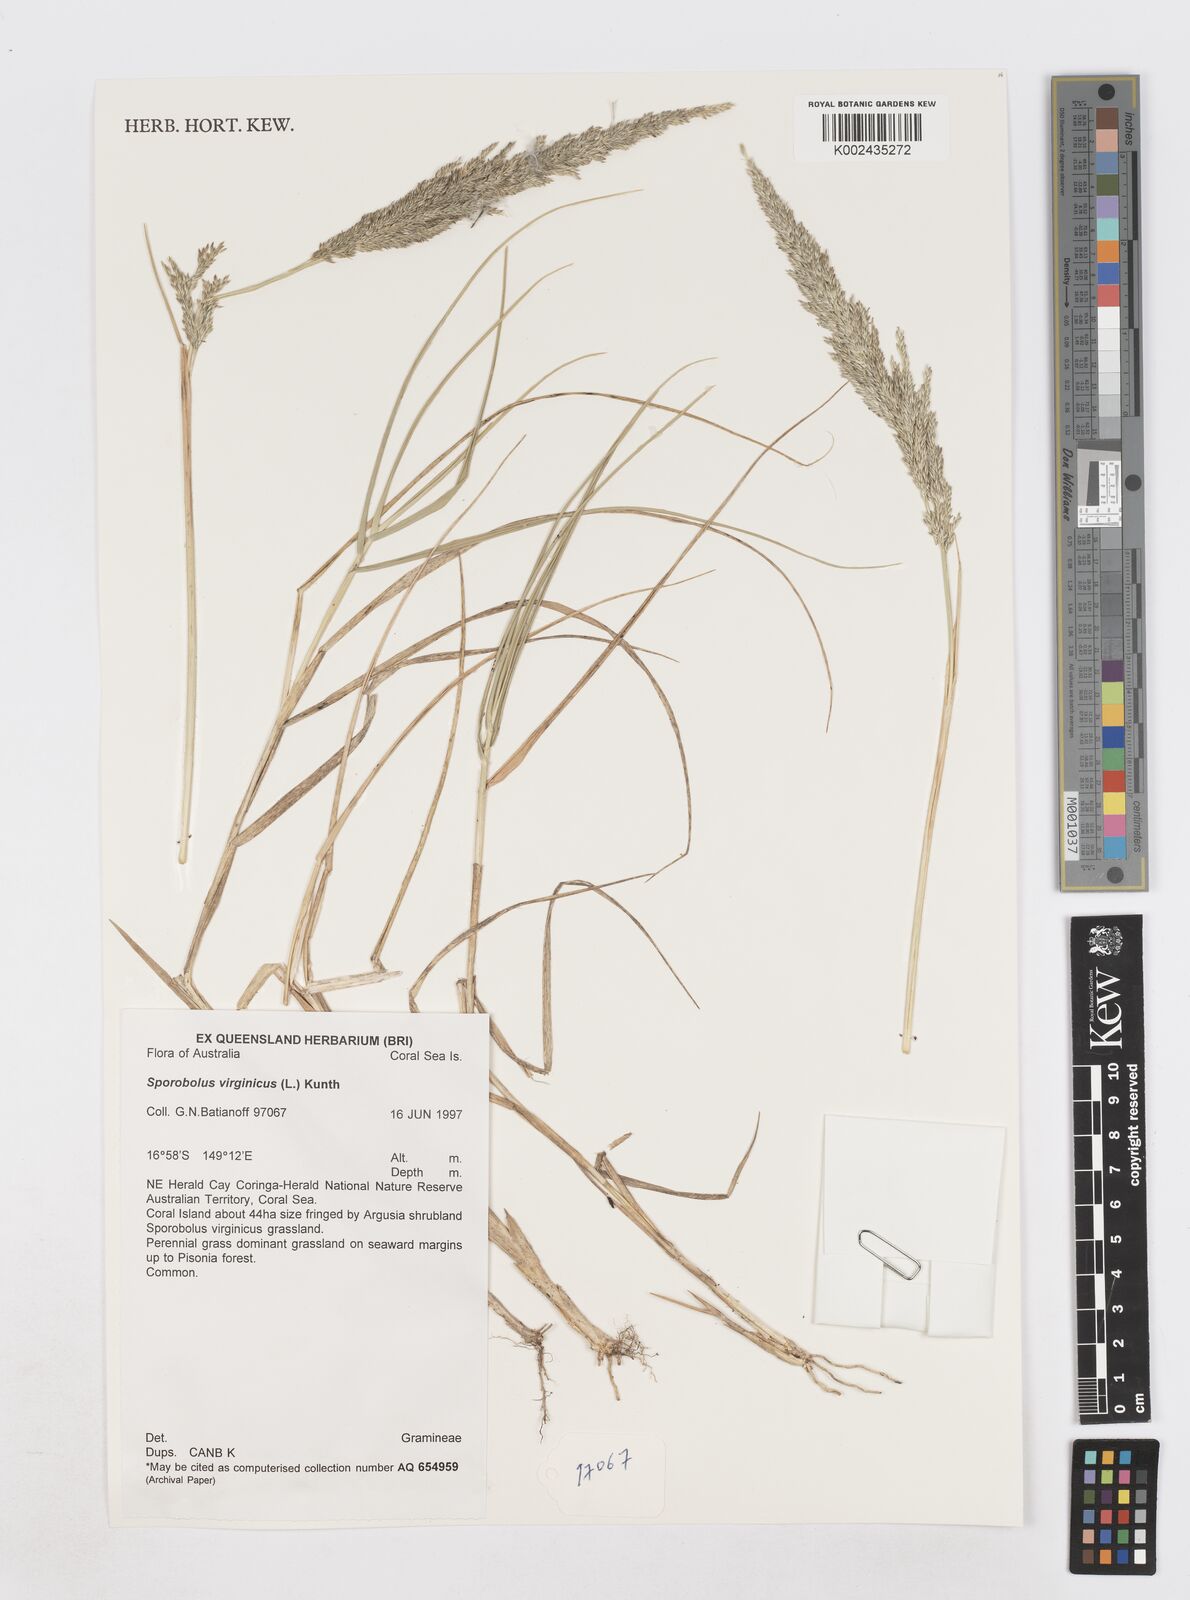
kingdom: Plantae
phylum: Tracheophyta
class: Liliopsida
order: Poales
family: Poaceae
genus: Sporobolus
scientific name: Sporobolus virginicus
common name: Beach dropseed
